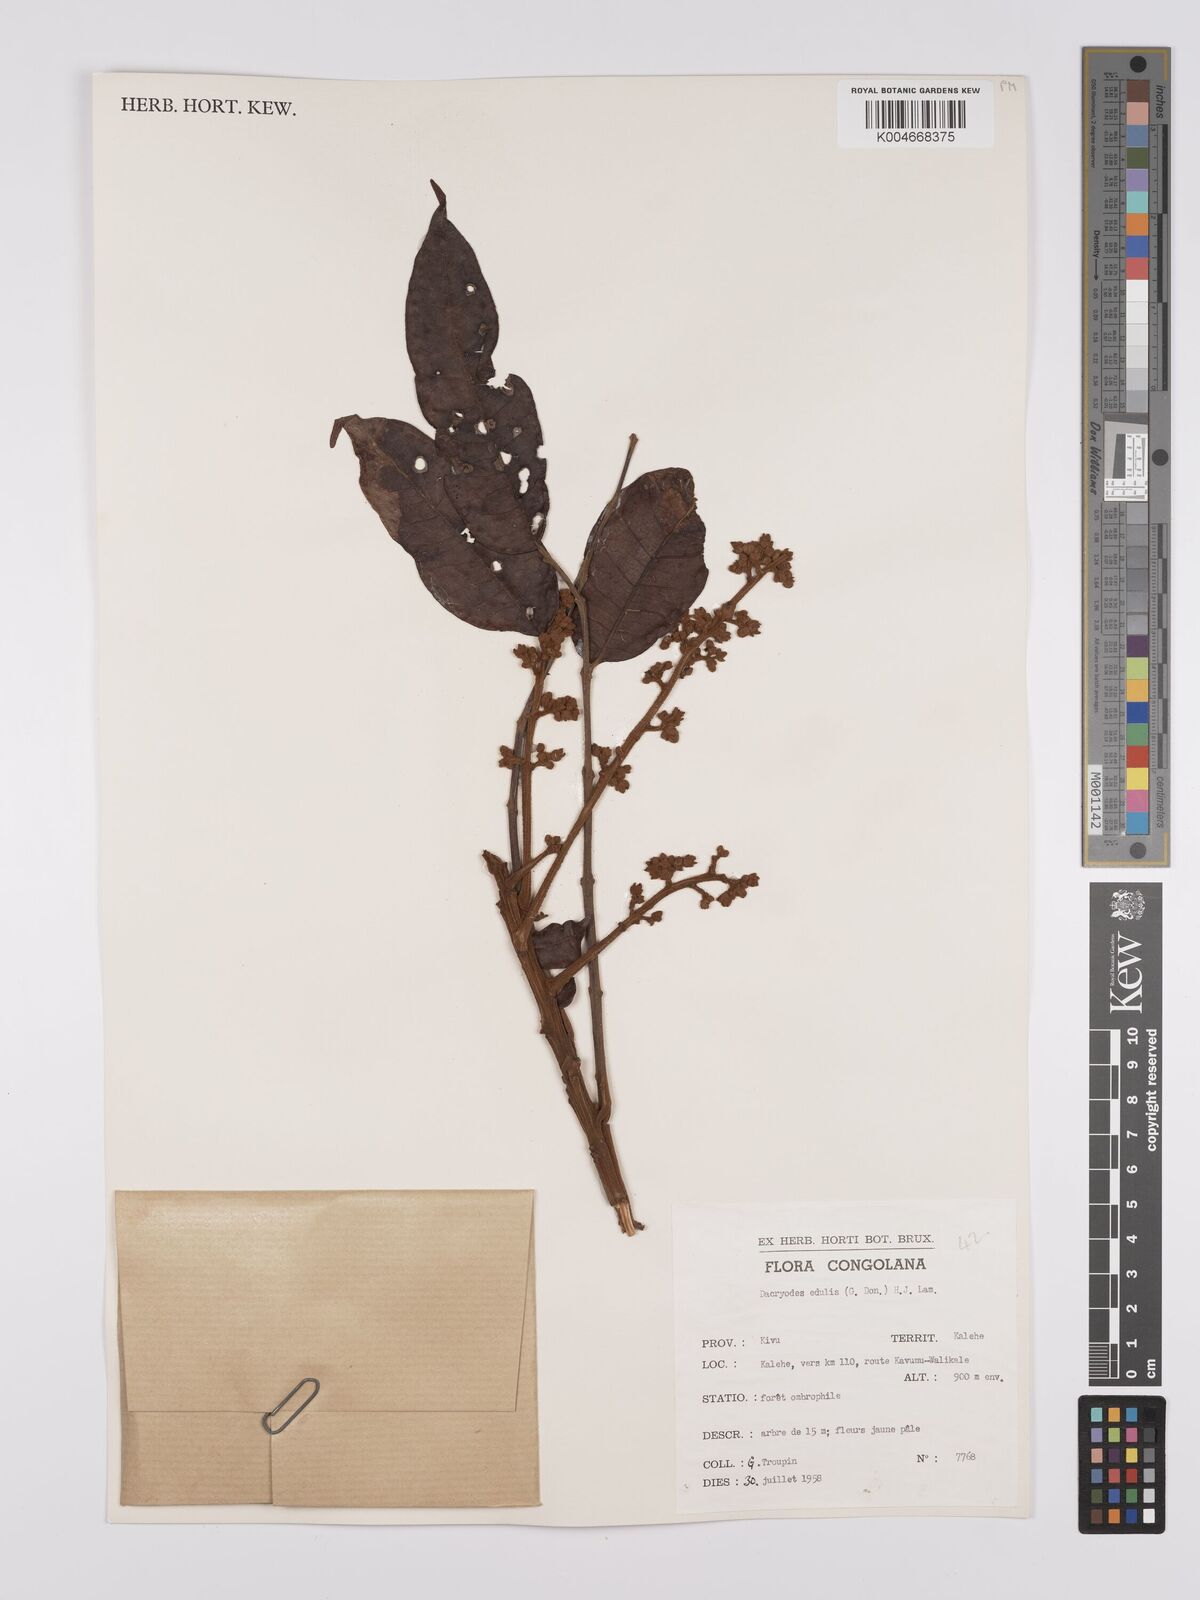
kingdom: Plantae
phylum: Tracheophyta
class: Magnoliopsida
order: Sapindales
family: Burseraceae
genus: Pachylobus
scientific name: Pachylobus edulis
